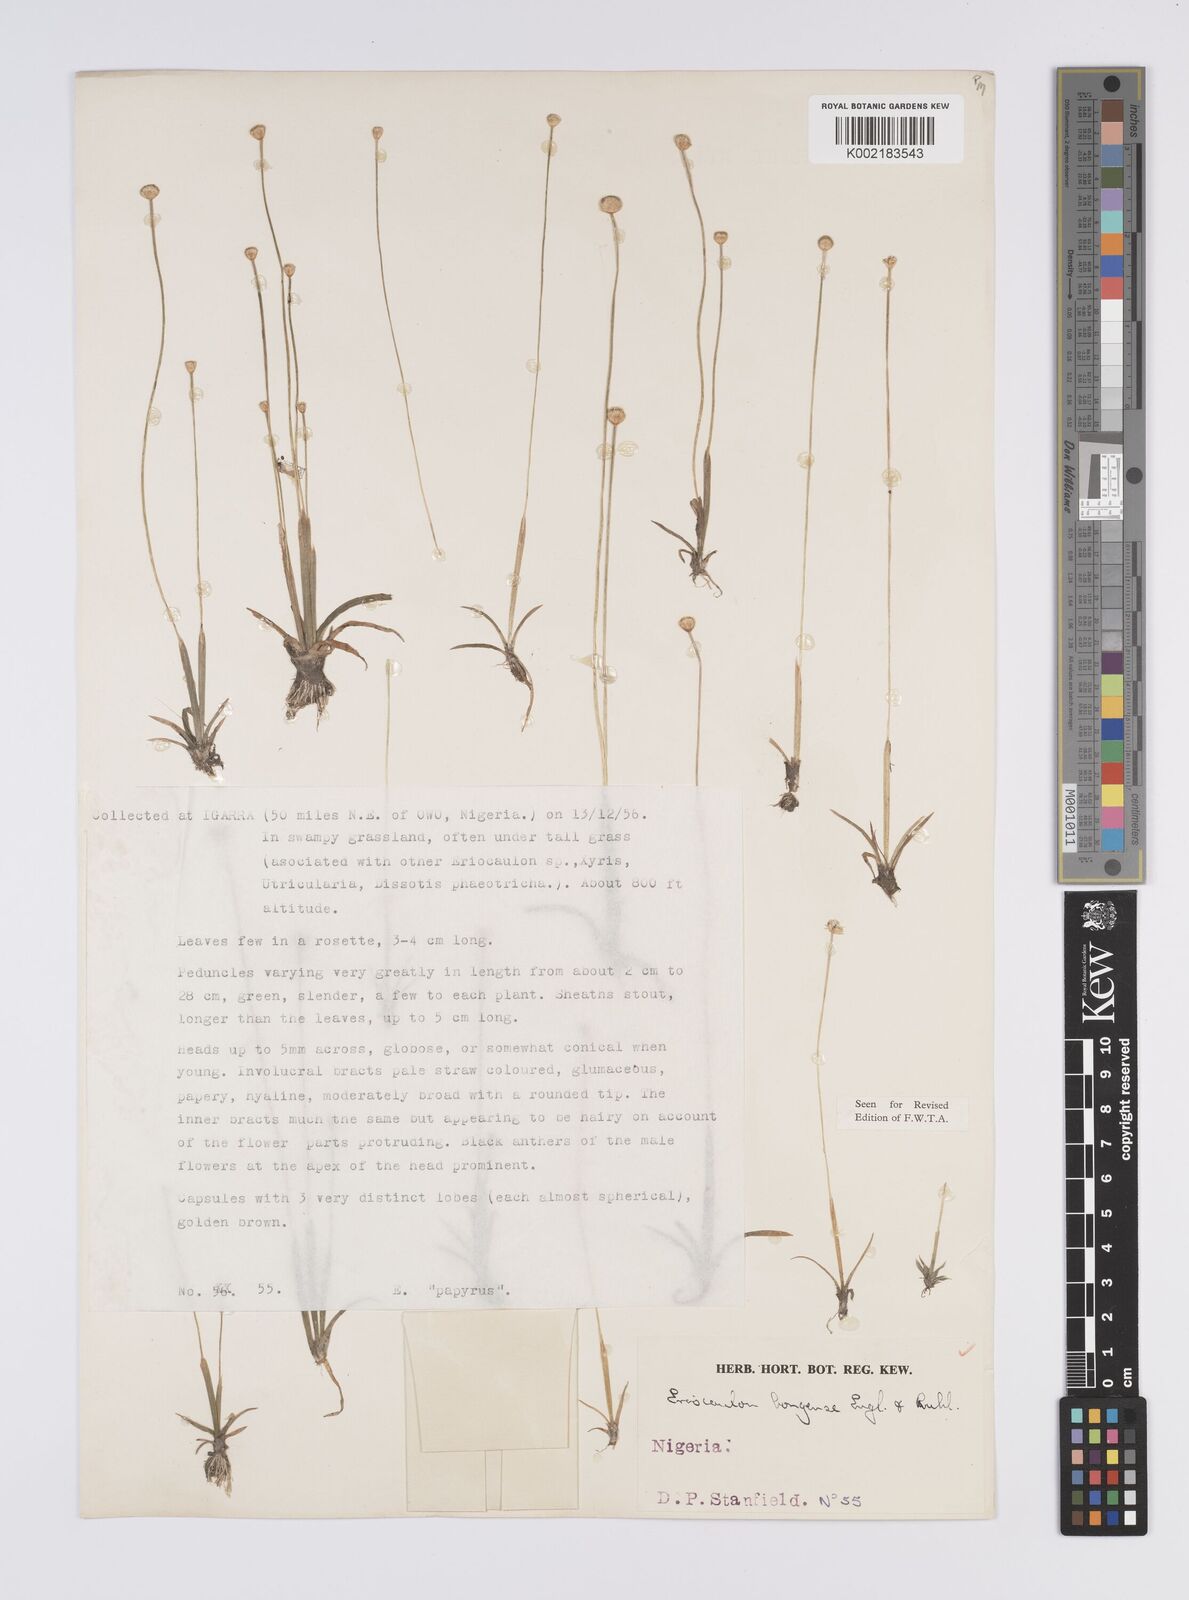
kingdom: Plantae
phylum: Tracheophyta
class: Liliopsida
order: Poales
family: Eriocaulaceae
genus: Eriocaulon
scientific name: Eriocaulon bongense
